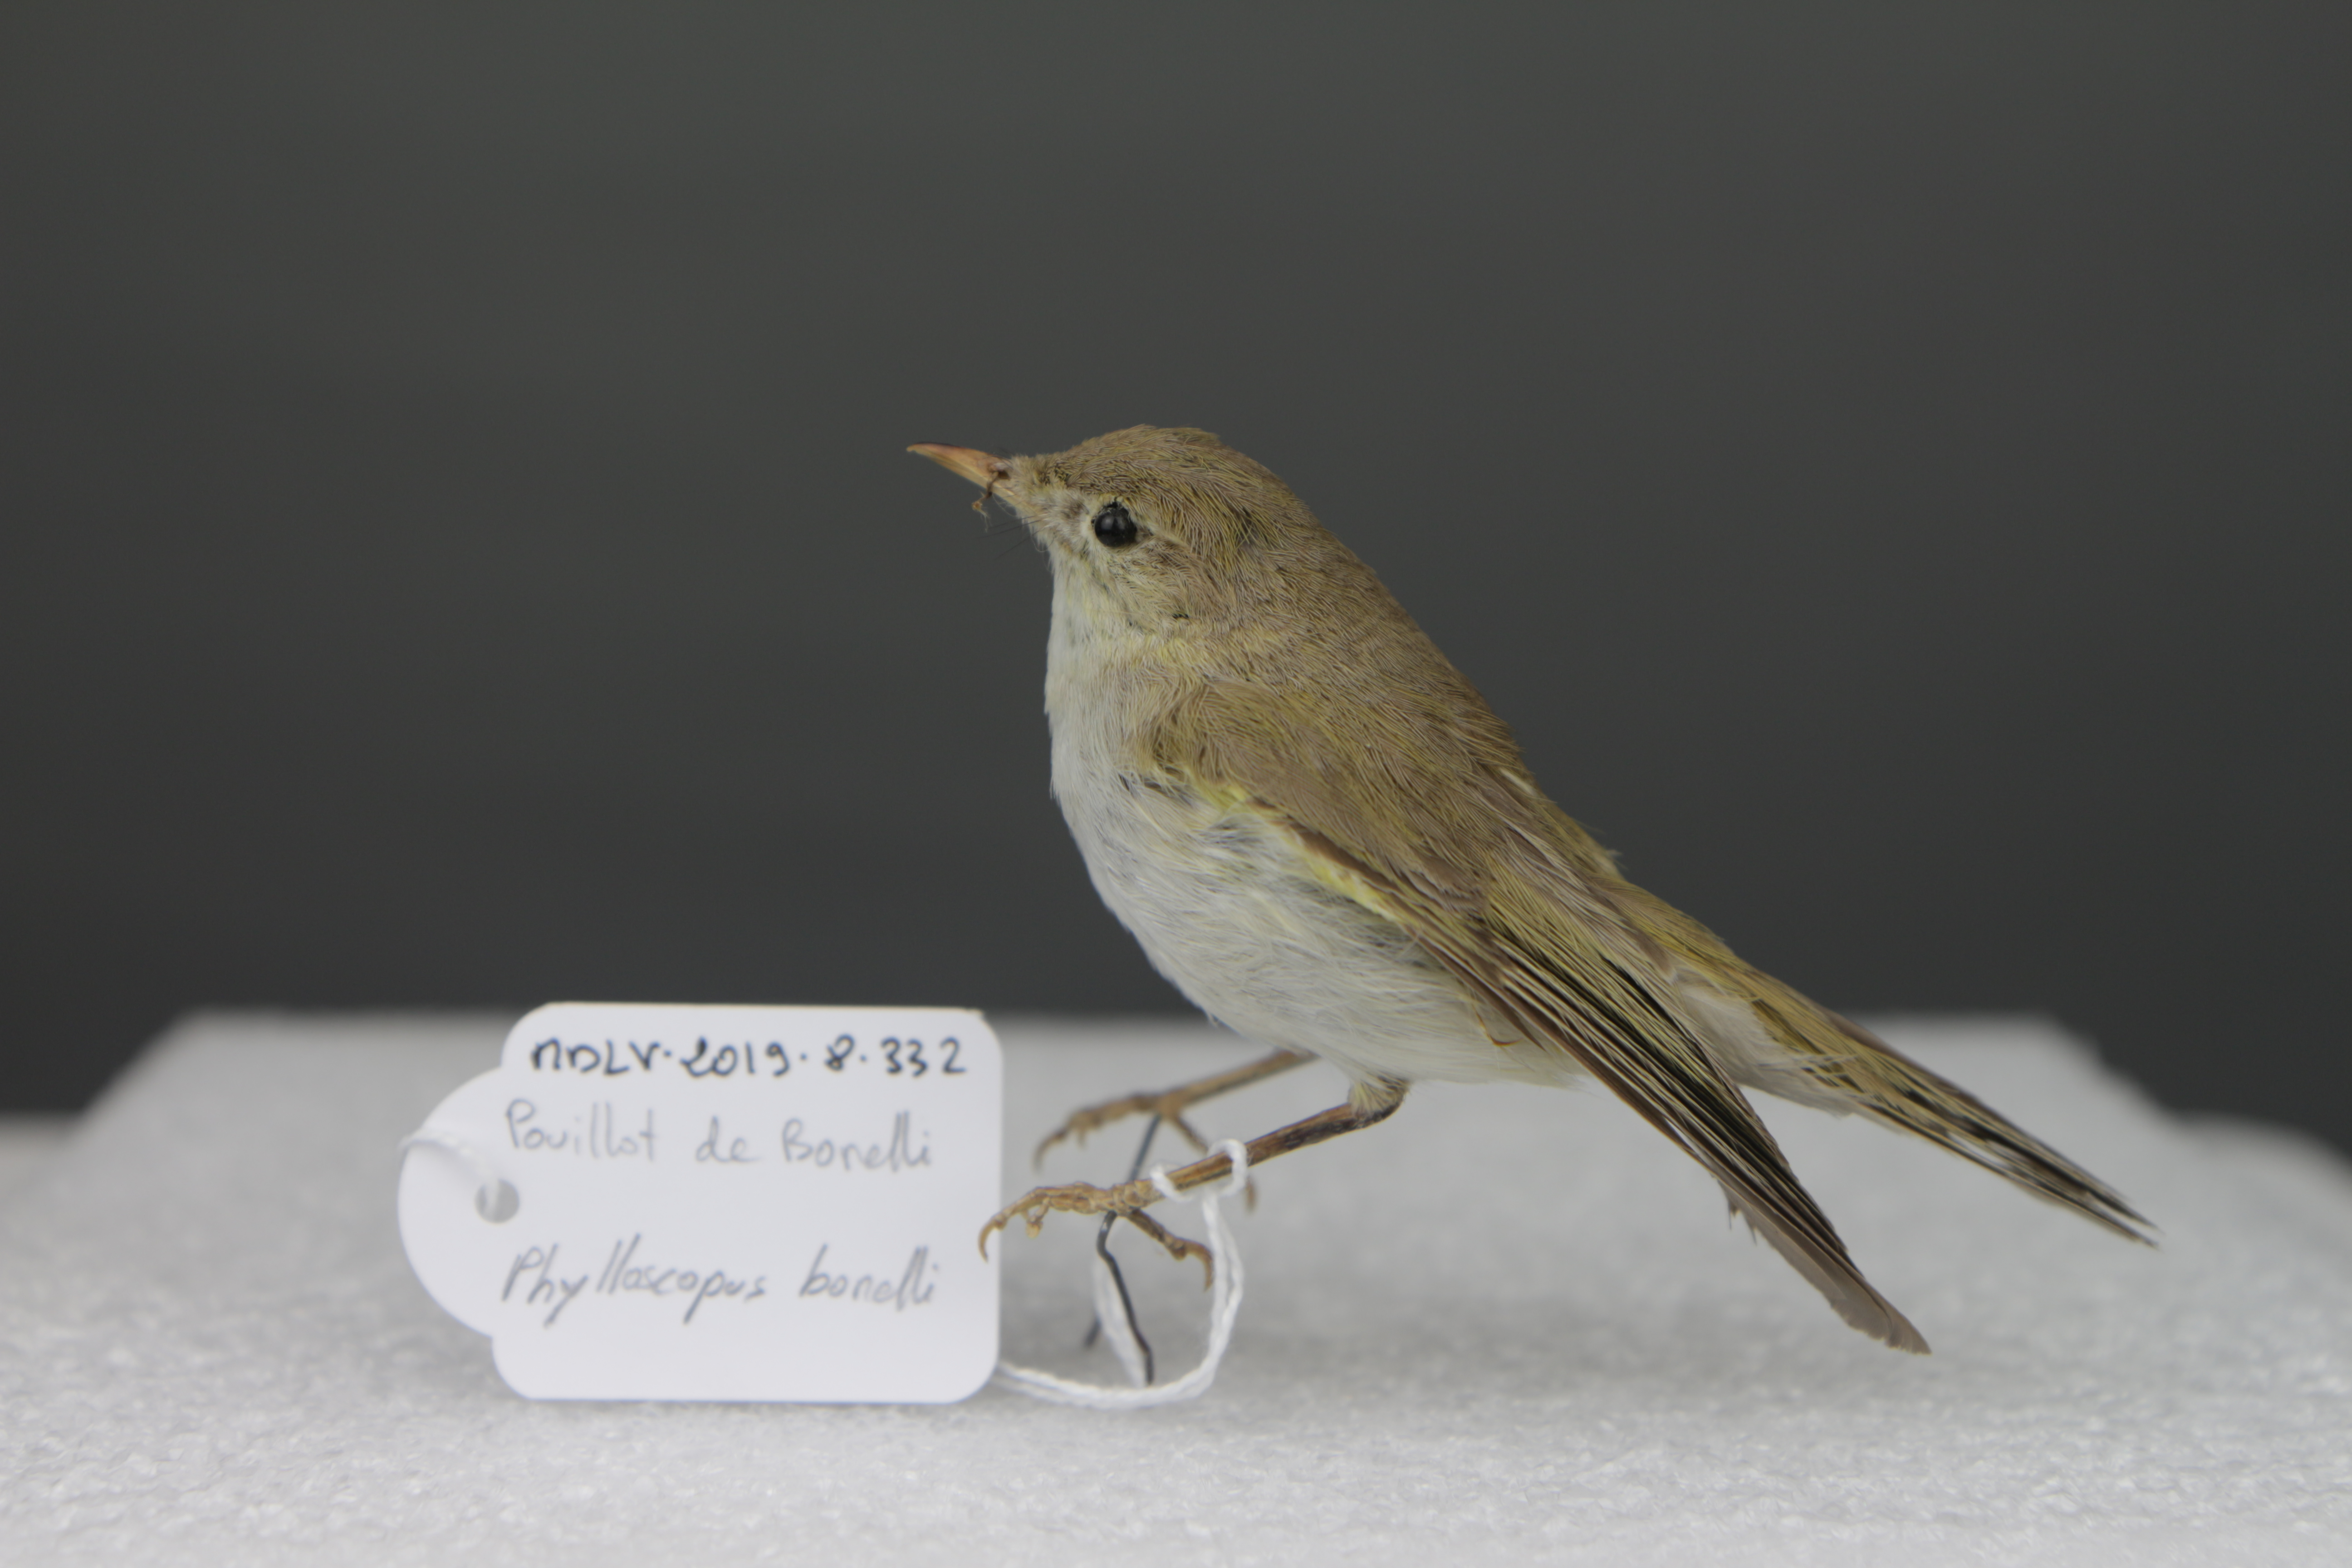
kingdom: Animalia
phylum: Chordata
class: Aves
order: Passeriformes
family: Phylloscopidae
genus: Phylloscopus
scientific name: Phylloscopus bonelli
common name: Western bonelli's warbler
